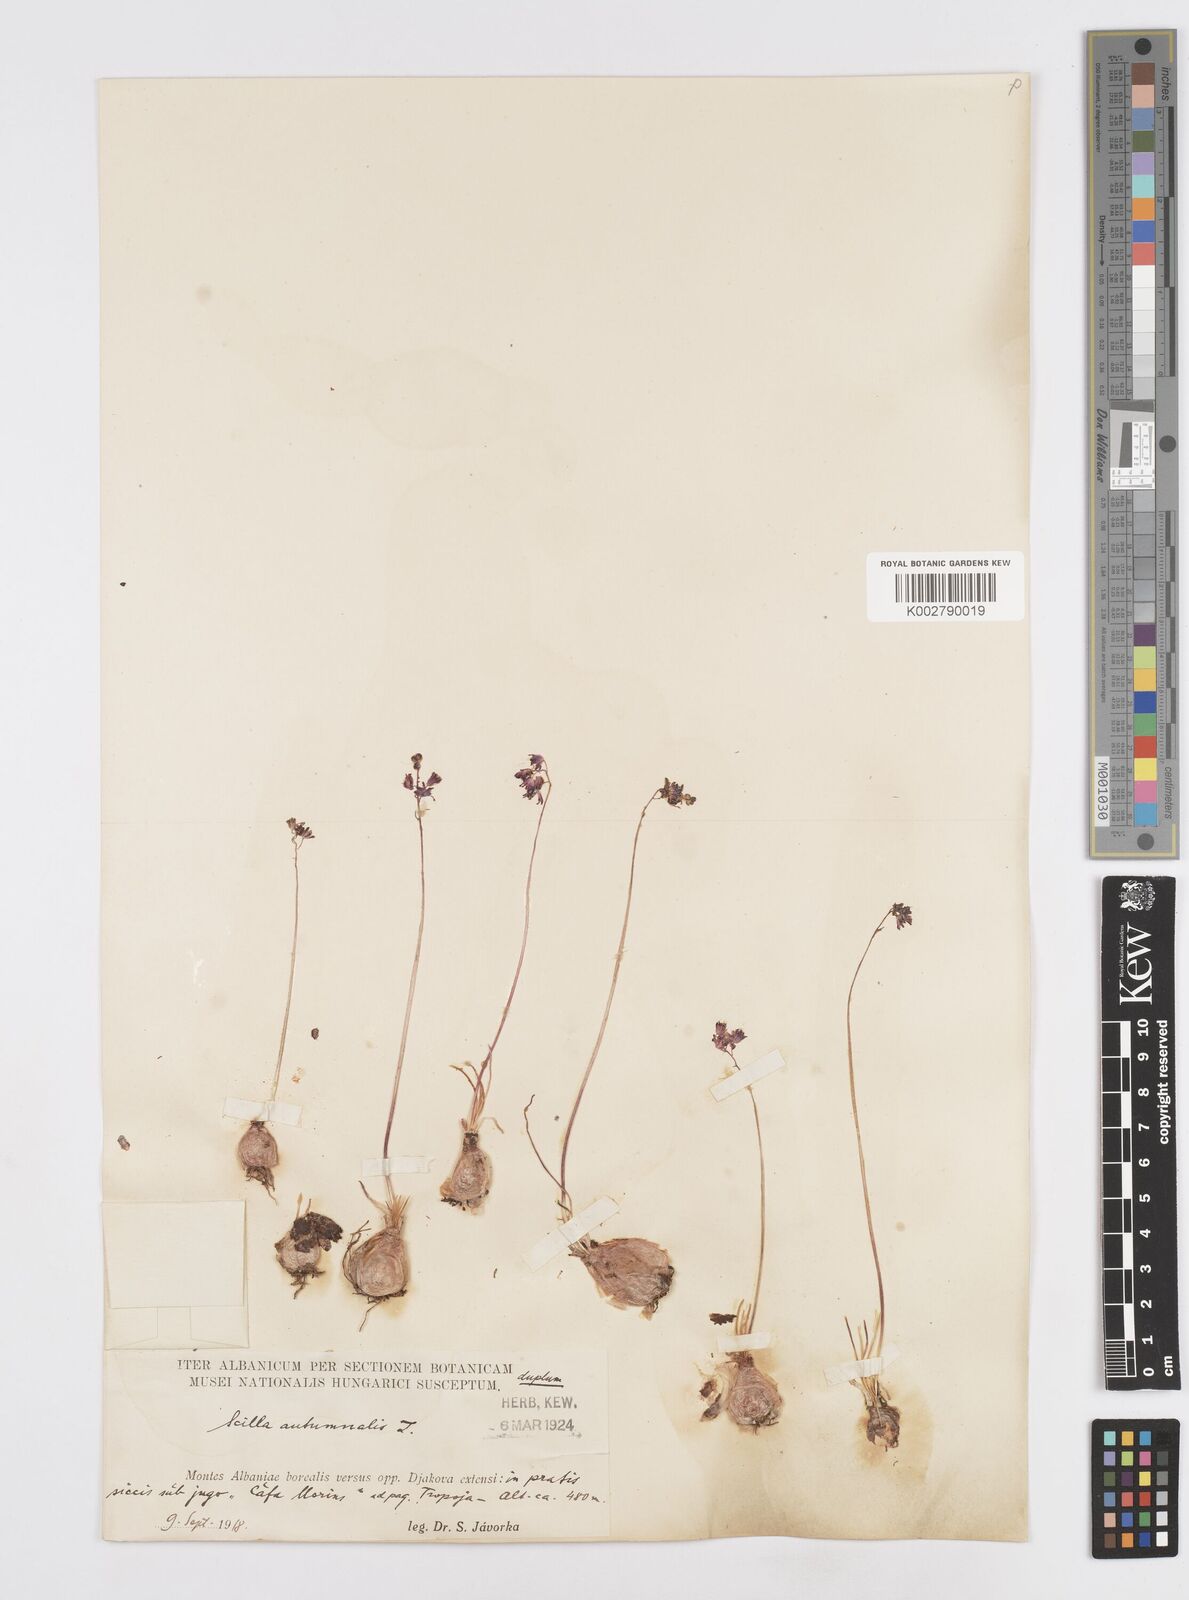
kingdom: Plantae
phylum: Tracheophyta
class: Liliopsida
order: Asparagales
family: Asparagaceae
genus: Prospero
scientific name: Prospero autumnale
